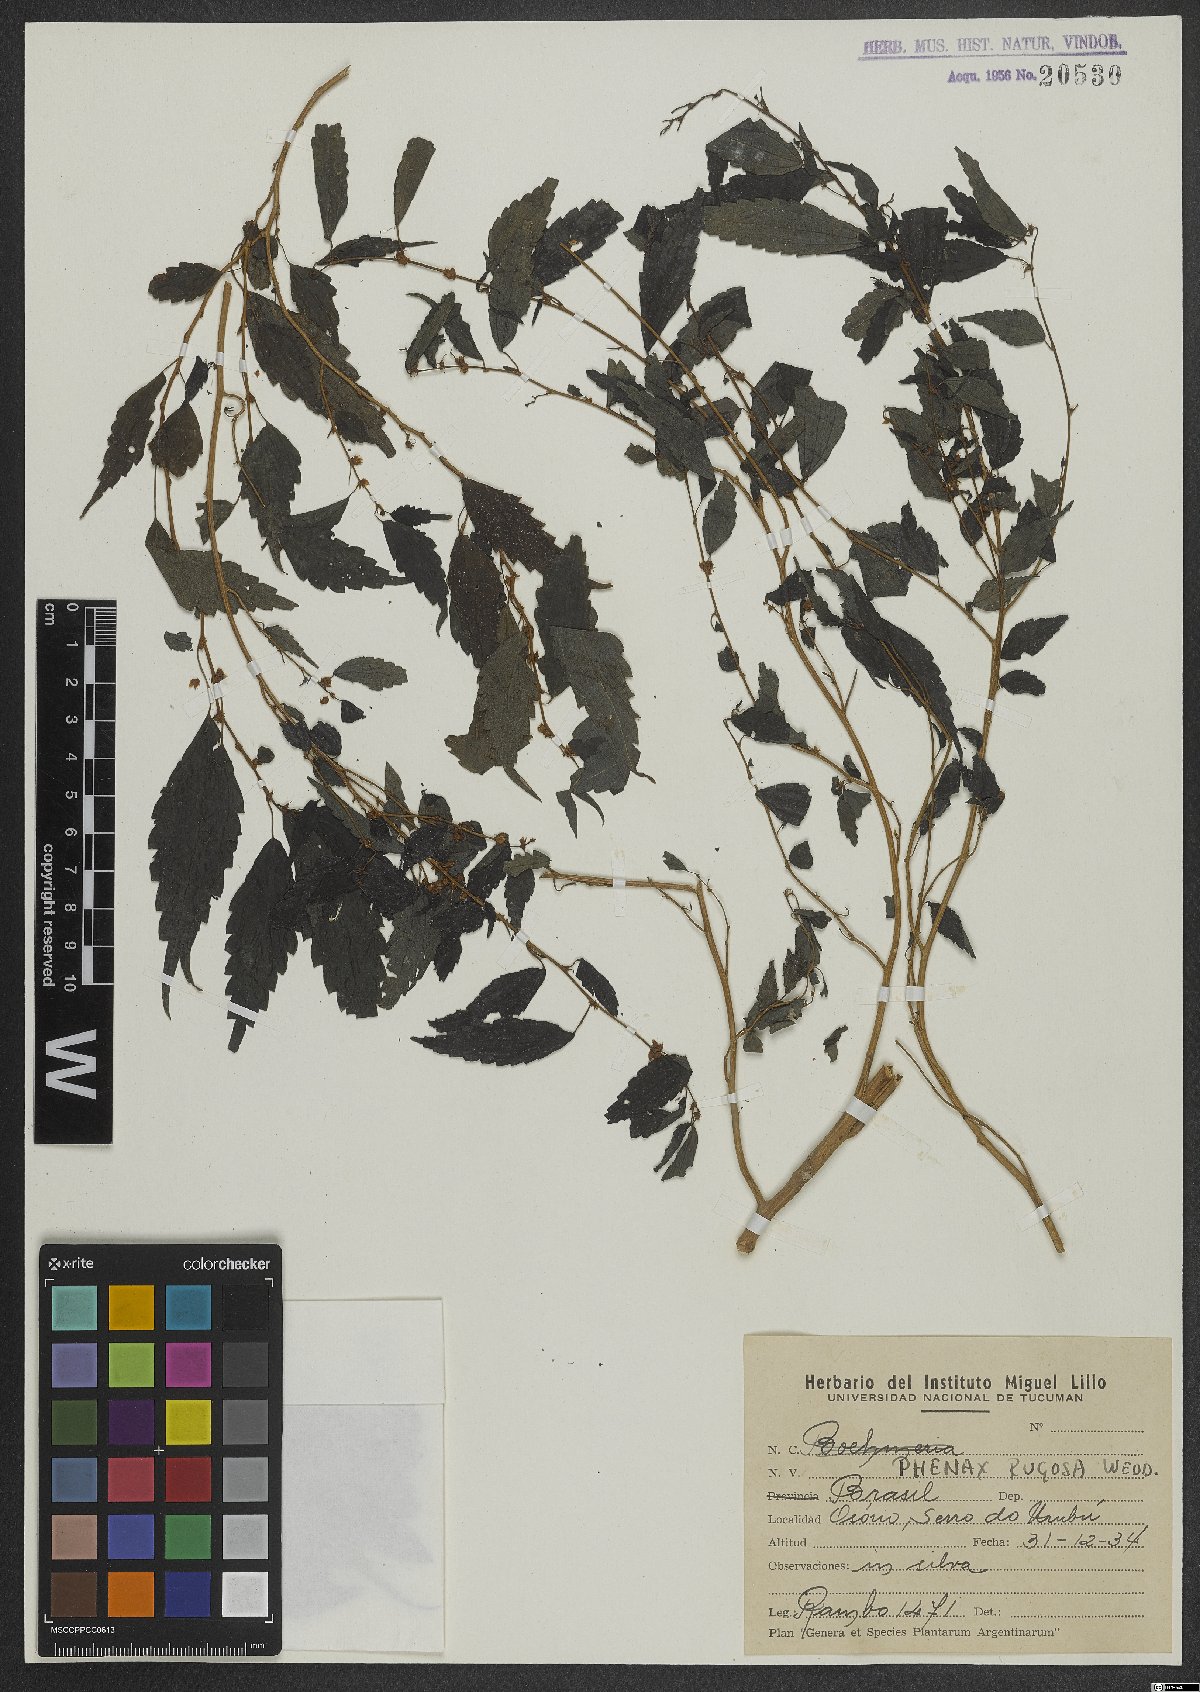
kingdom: Plantae
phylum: Tracheophyta
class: Magnoliopsida
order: Rosales
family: Urticaceae
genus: Phenax
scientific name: Phenax rugosus
